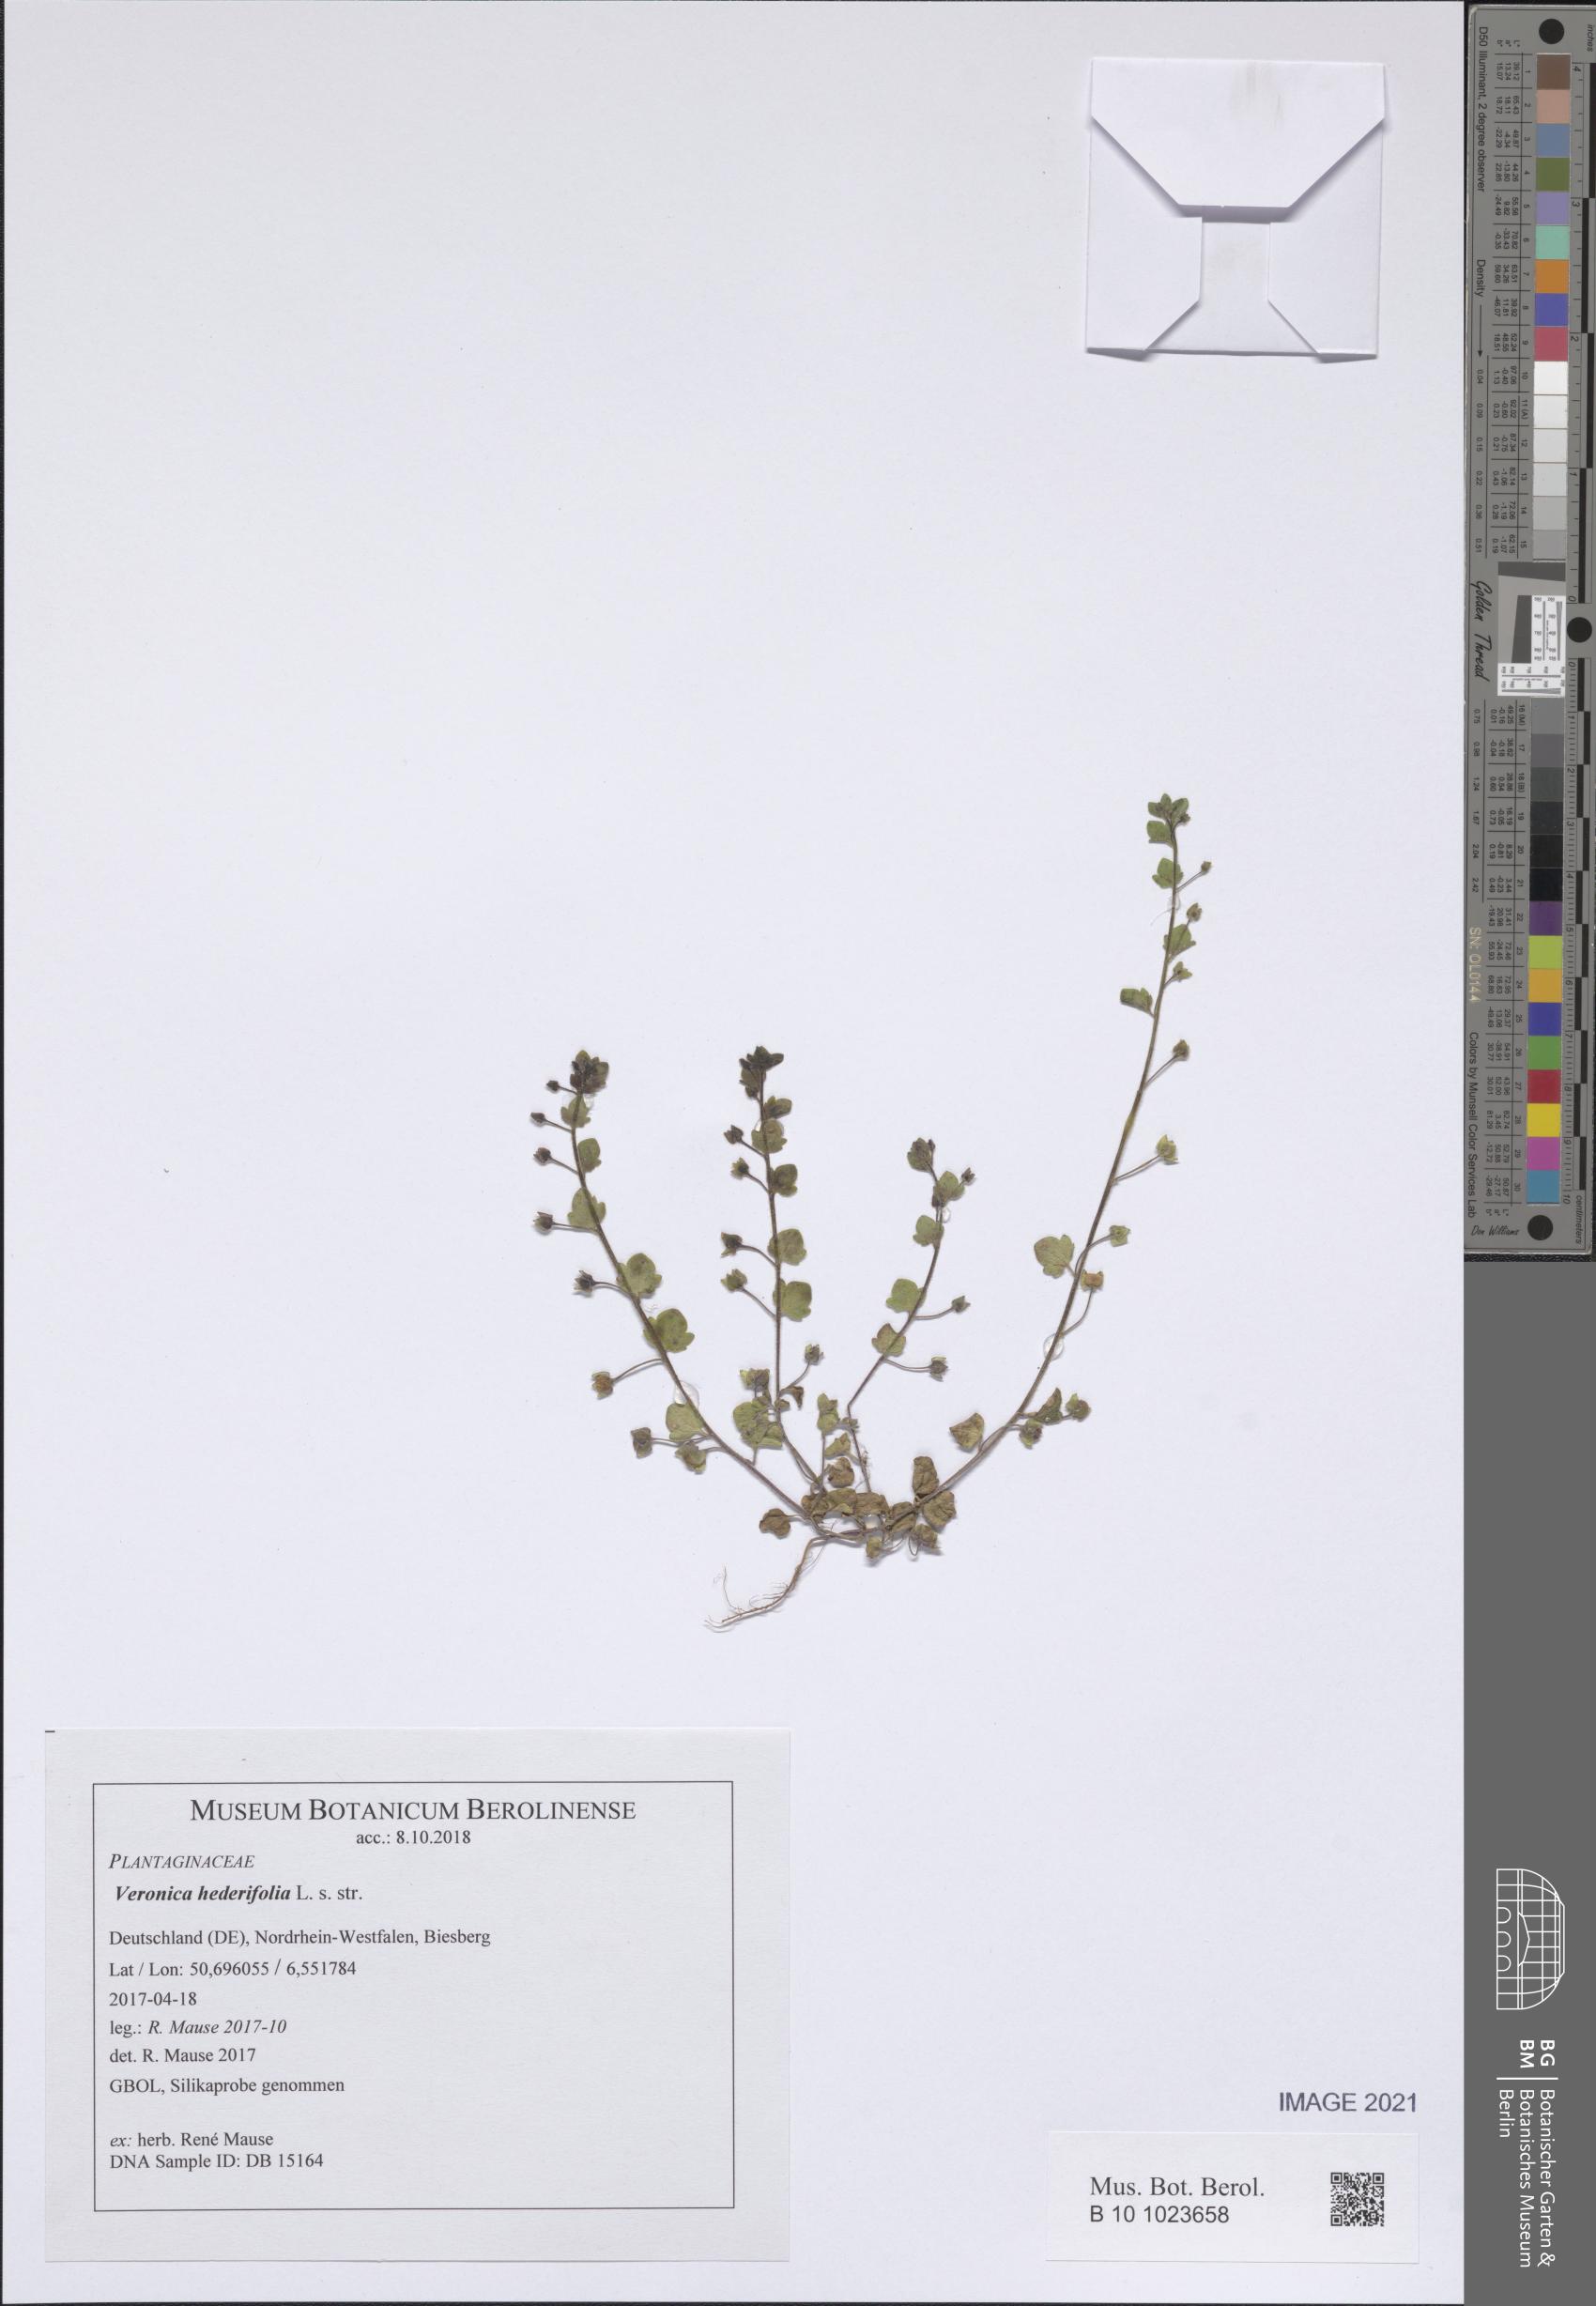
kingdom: Plantae
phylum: Tracheophyta
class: Magnoliopsida
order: Lamiales
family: Plantaginaceae
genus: Veronica
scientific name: Veronica hederifolia
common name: Ivy-leaved speedwell
